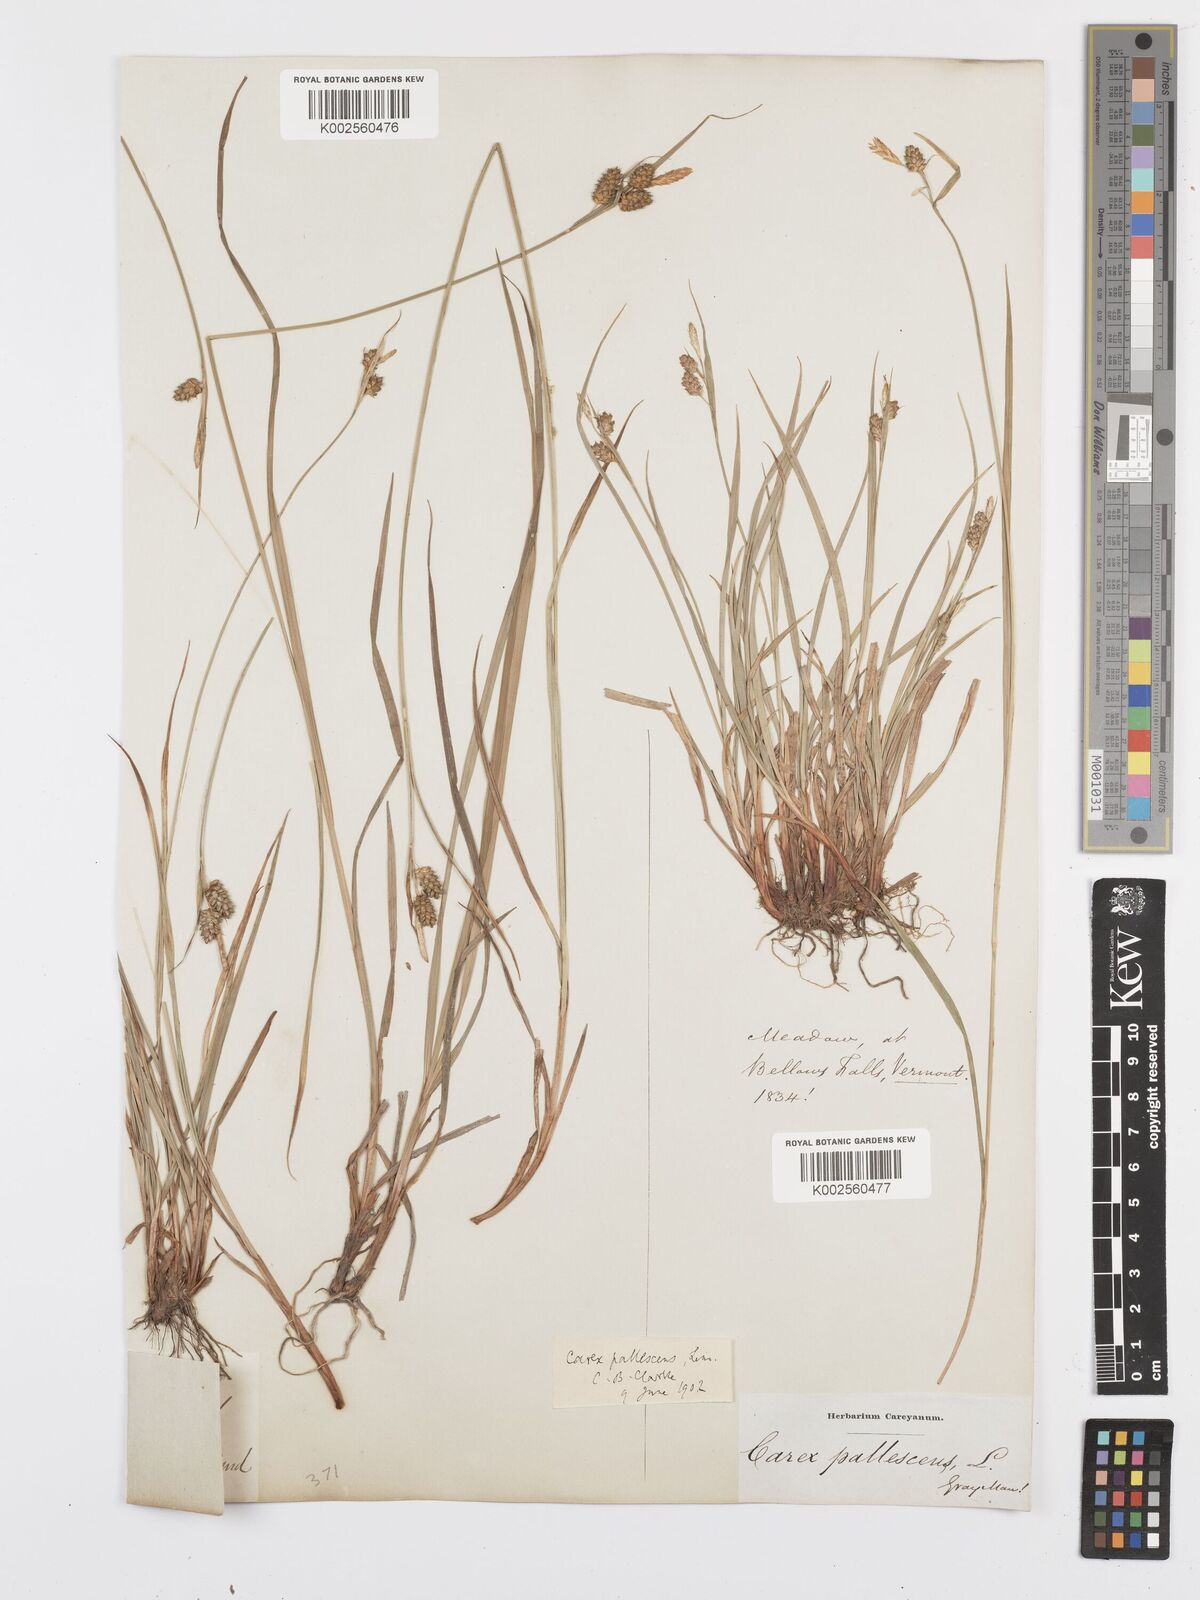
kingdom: Plantae
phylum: Tracheophyta
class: Liliopsida
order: Poales
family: Cyperaceae
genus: Carex
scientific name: Carex pallescens
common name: Pale sedge
